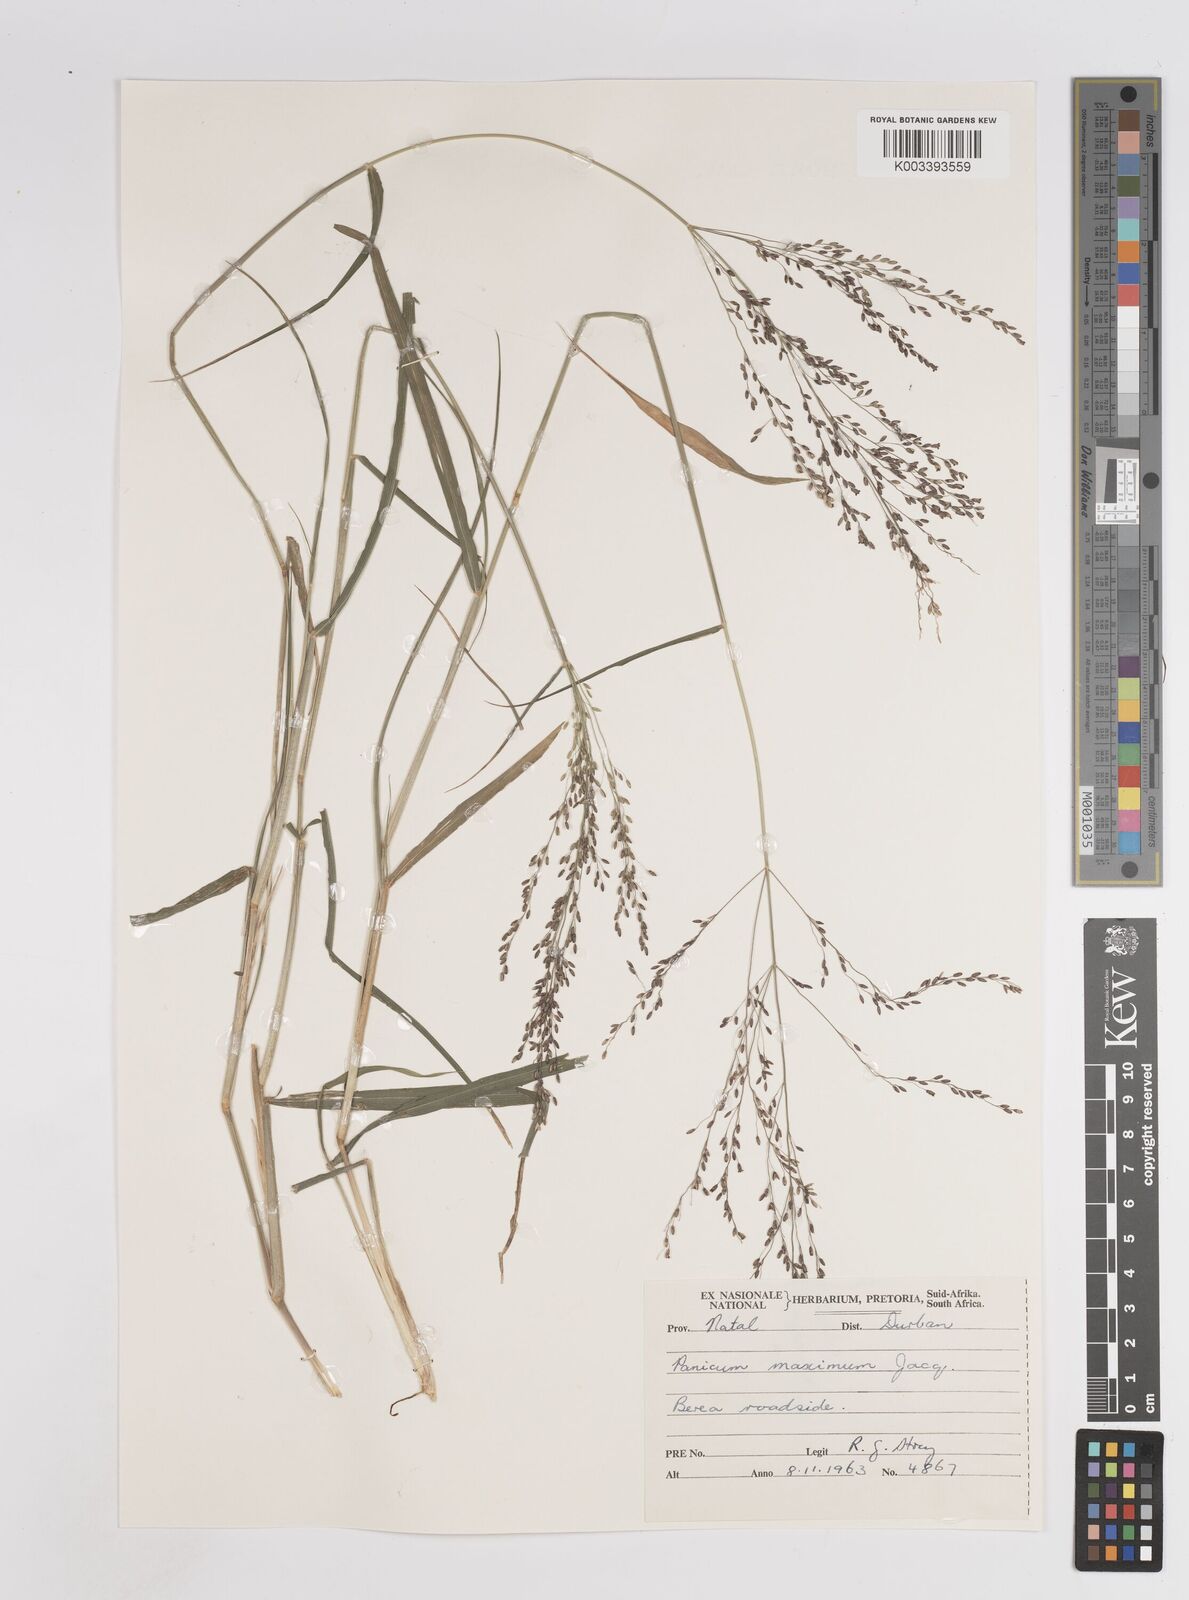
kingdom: Plantae
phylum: Tracheophyta
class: Liliopsida
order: Poales
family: Poaceae
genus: Megathyrsus
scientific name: Megathyrsus maximus
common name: Guineagrass
